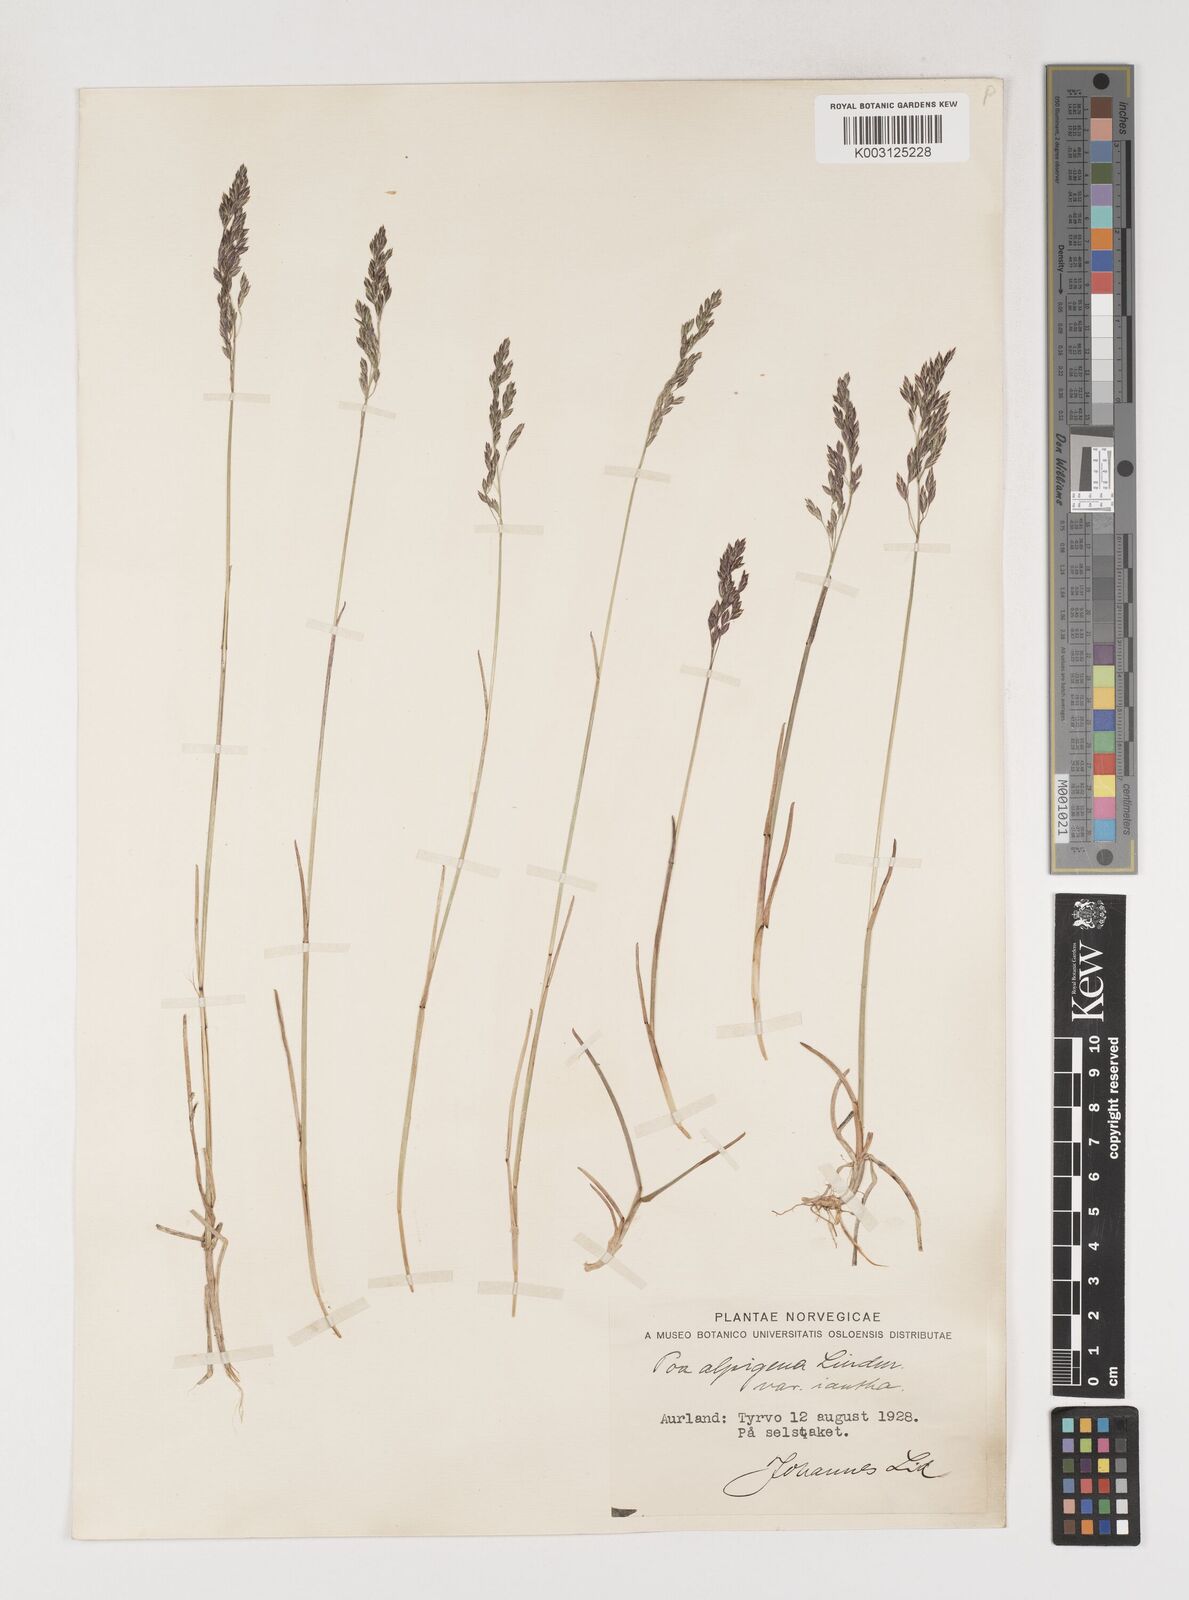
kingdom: Plantae
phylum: Tracheophyta
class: Liliopsida
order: Poales
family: Poaceae
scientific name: Poaceae
